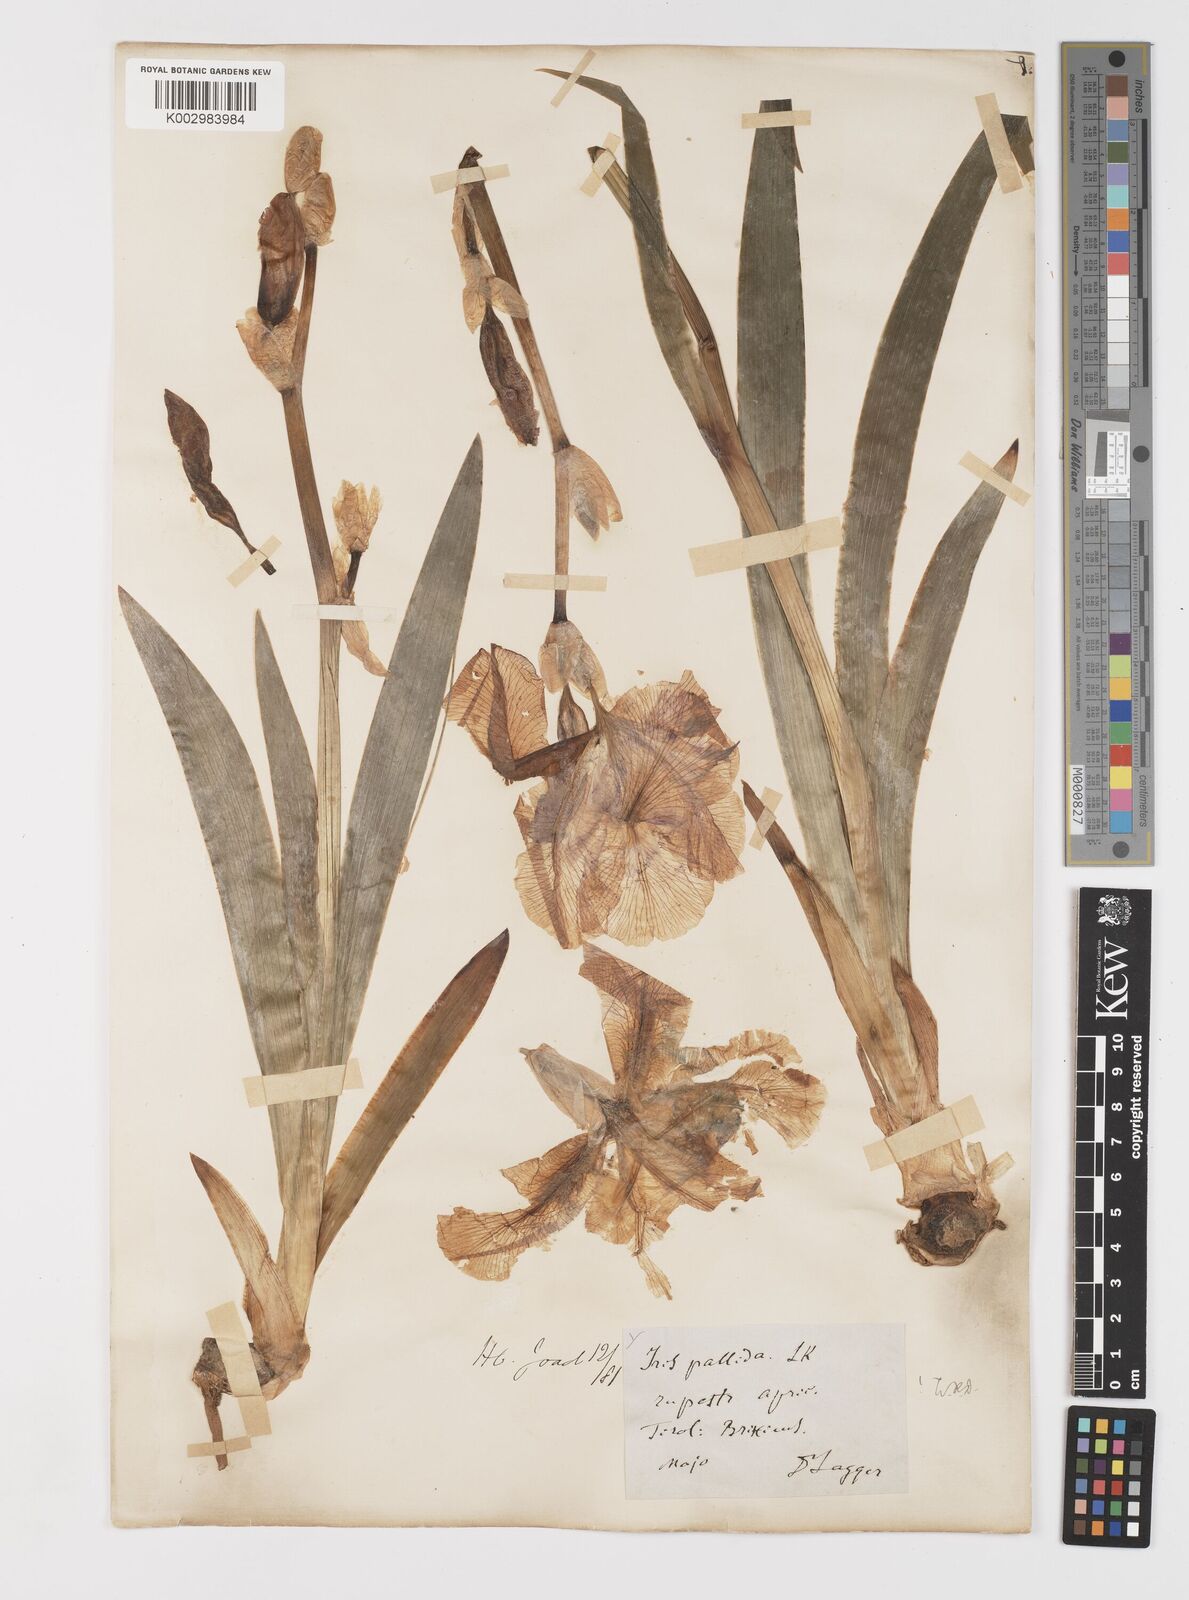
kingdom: Plantae
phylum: Tracheophyta
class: Liliopsida
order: Asparagales
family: Iridaceae
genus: Iris
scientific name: Iris halophila
